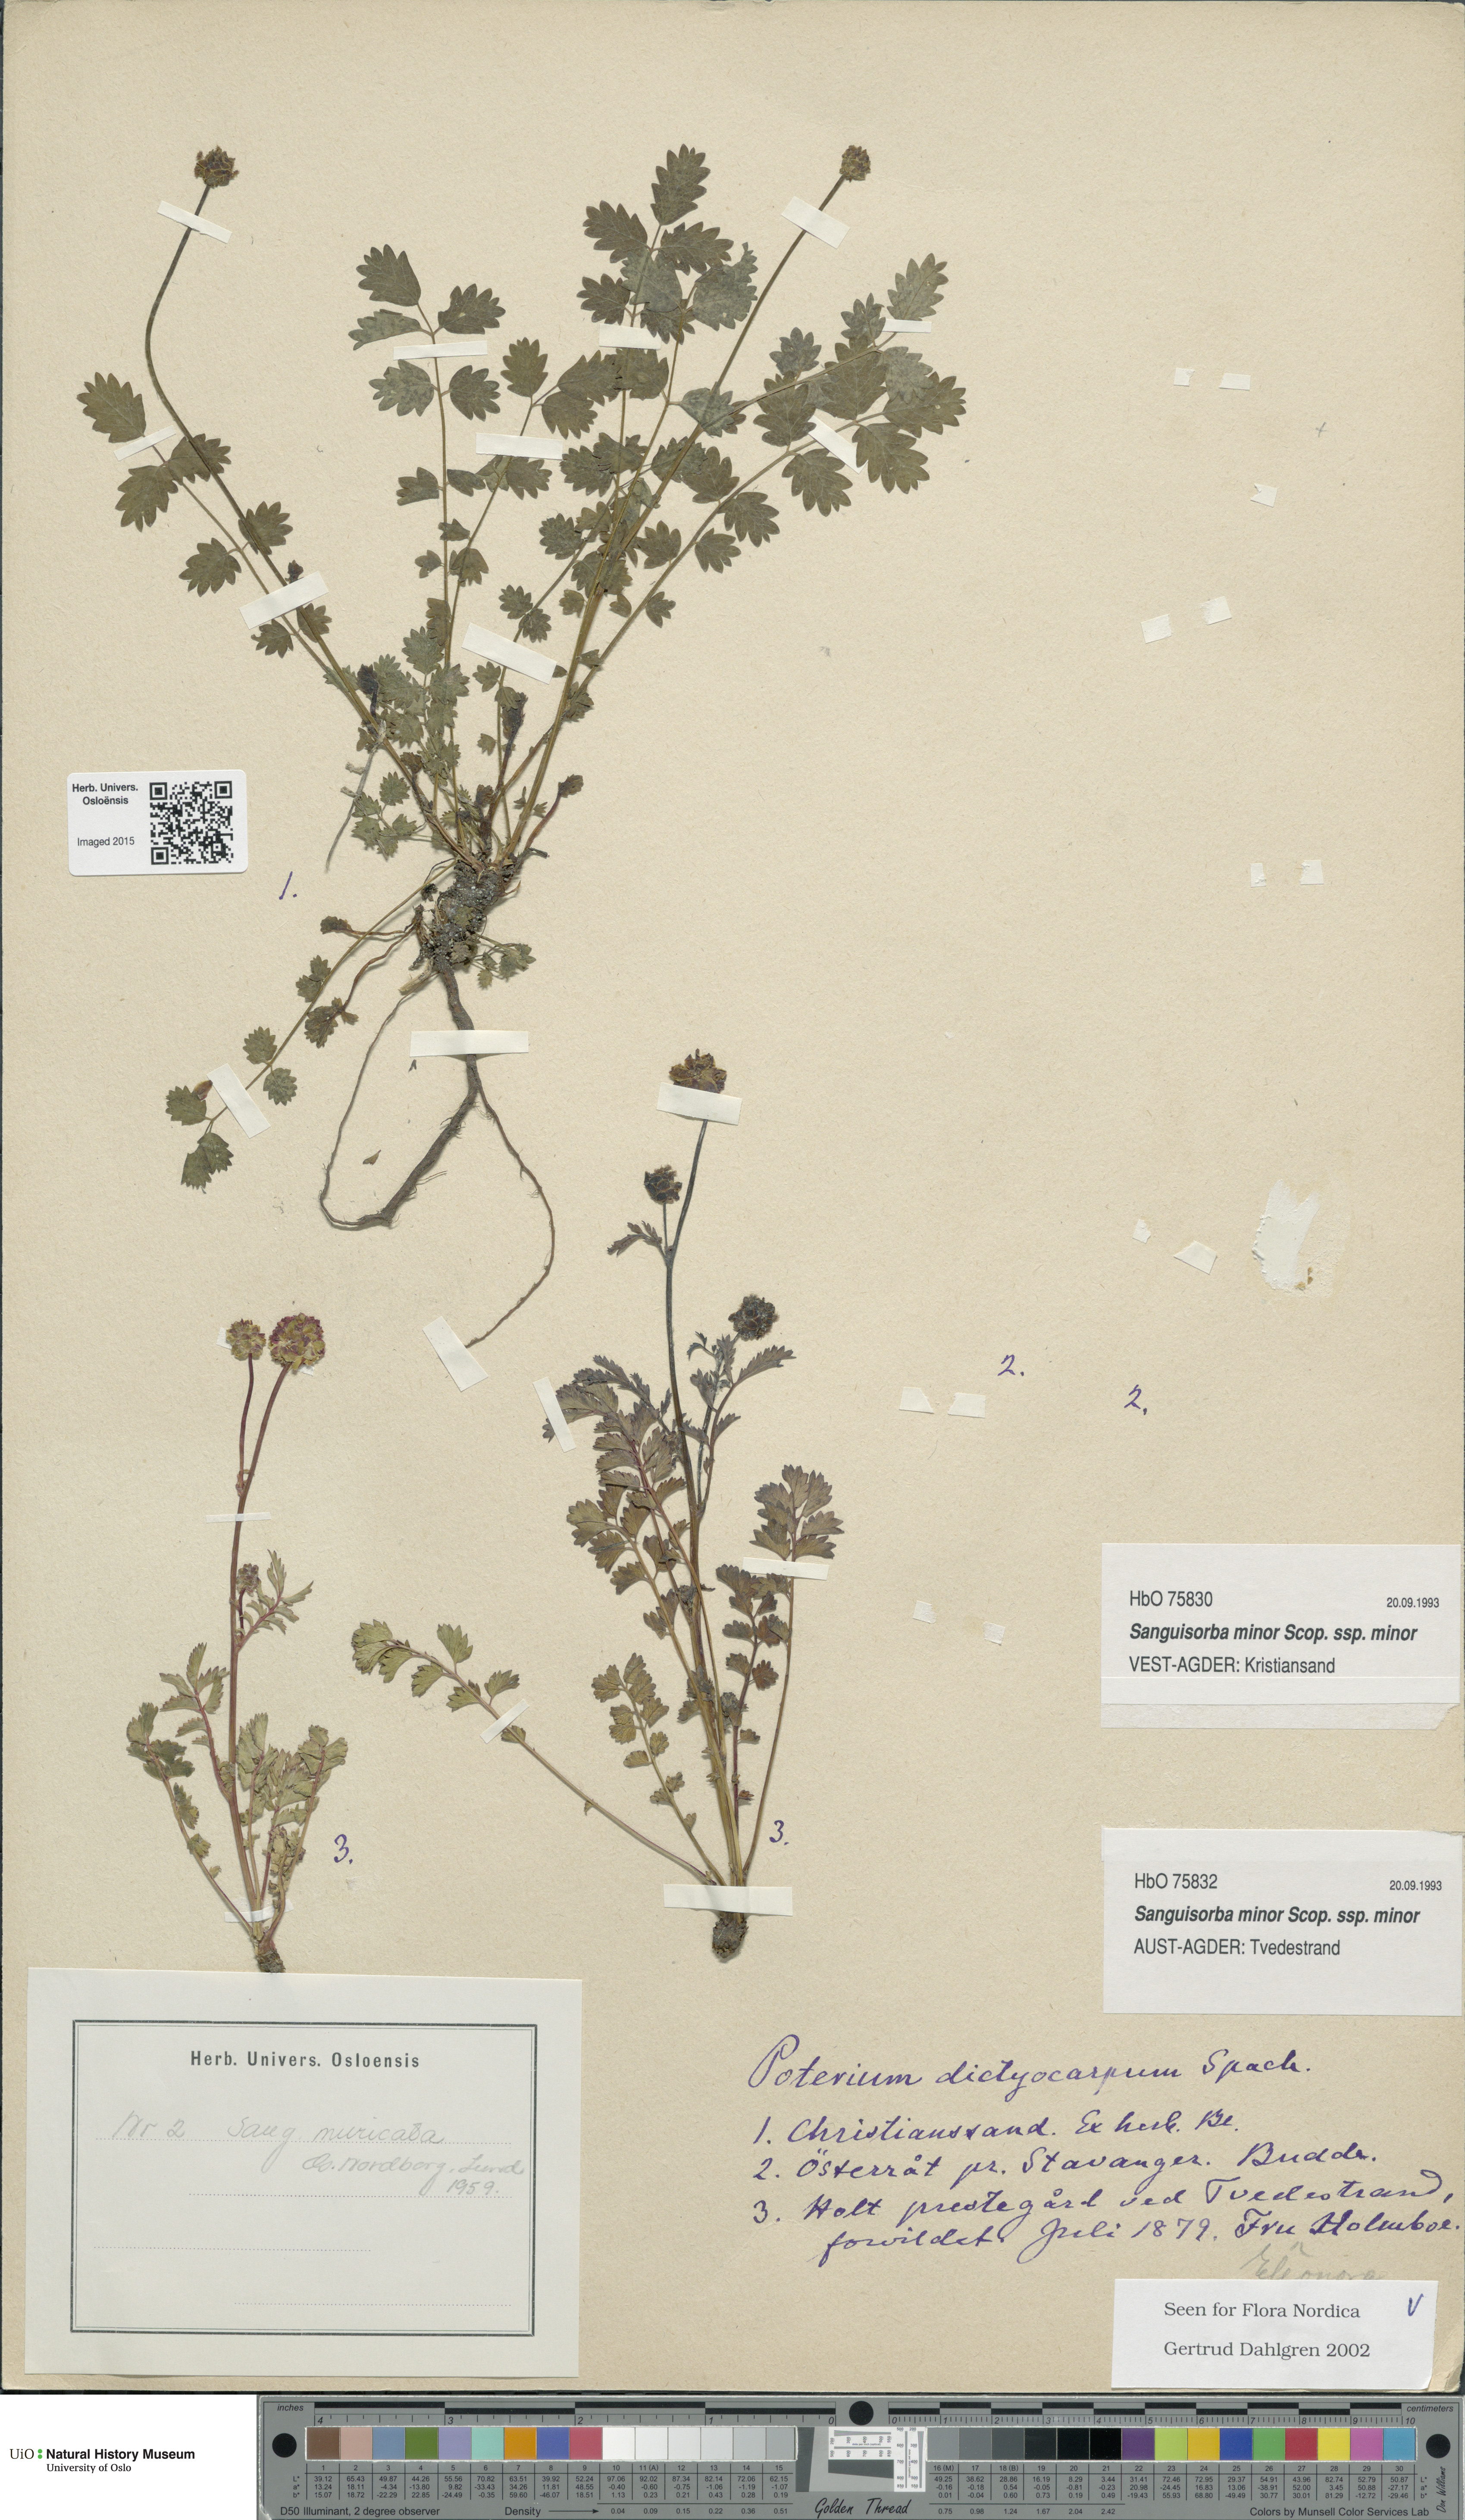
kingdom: Plantae
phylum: Tracheophyta
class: Magnoliopsida
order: Rosales
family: Rosaceae
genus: Poterium
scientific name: Poterium sanguisorba
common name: Salad burnet
